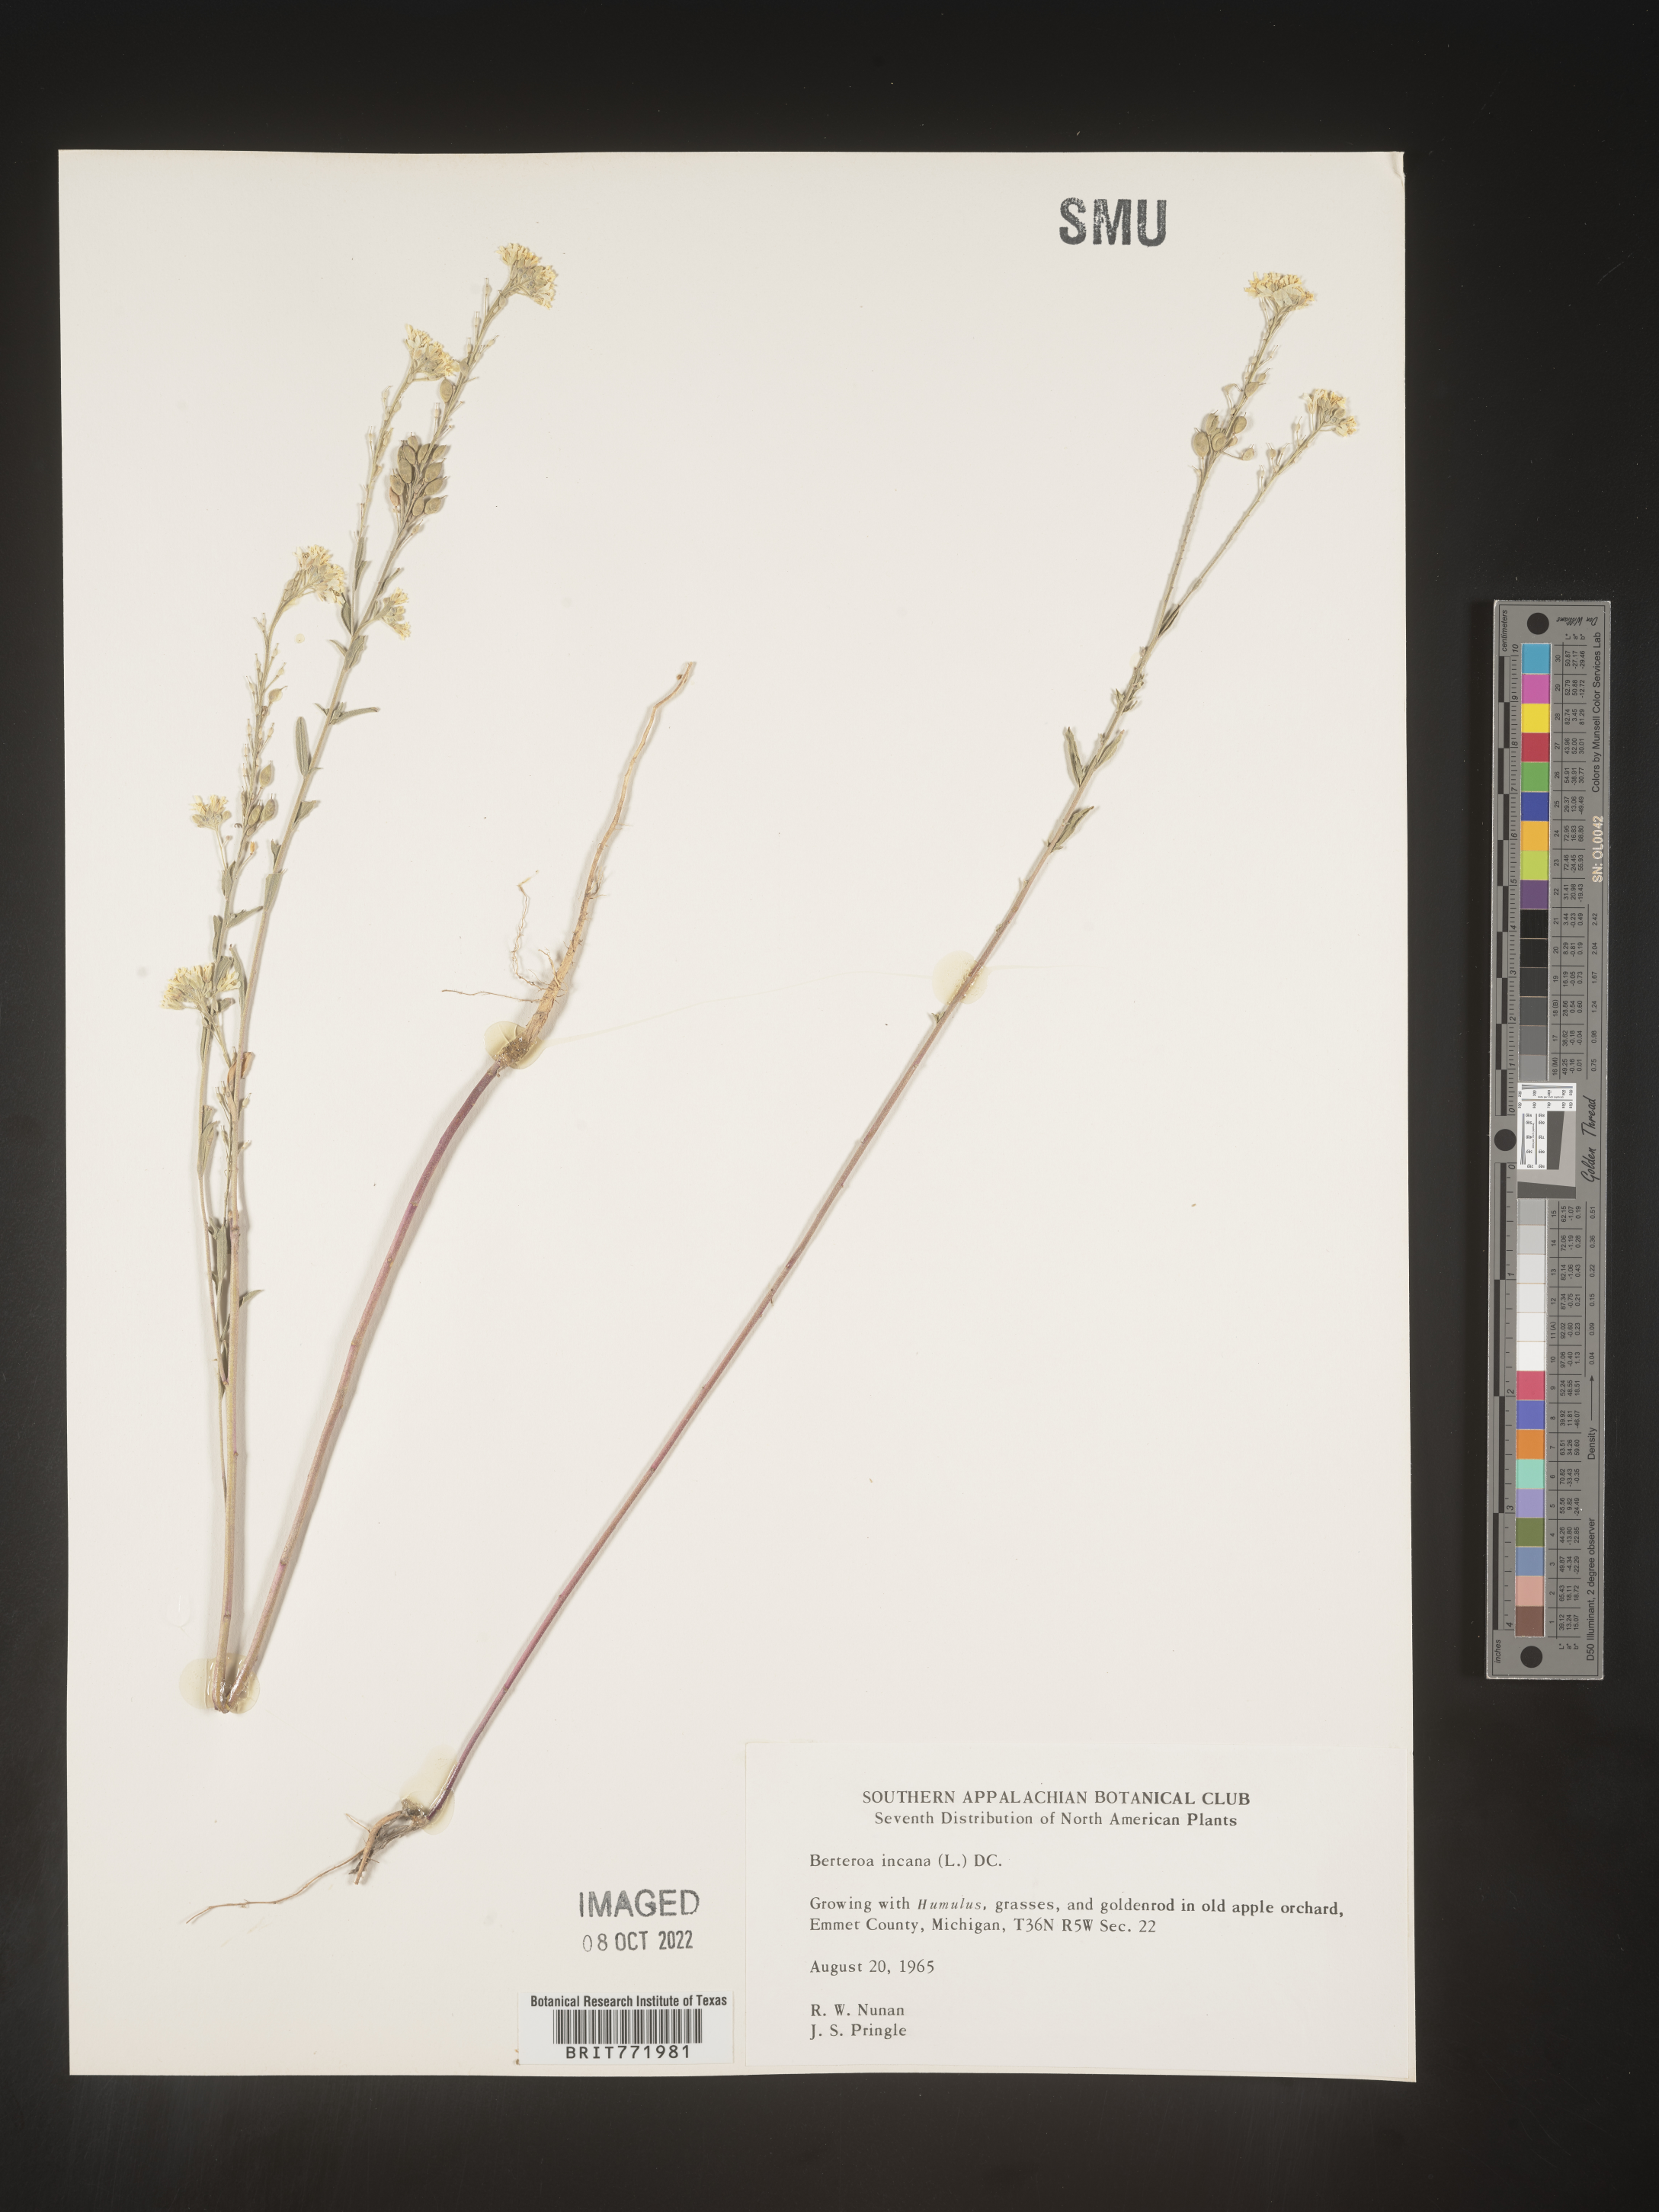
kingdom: Plantae
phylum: Tracheophyta
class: Magnoliopsida
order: Brassicales
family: Brassicaceae
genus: Berteroa
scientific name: Berteroa incana
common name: Hoary alison
